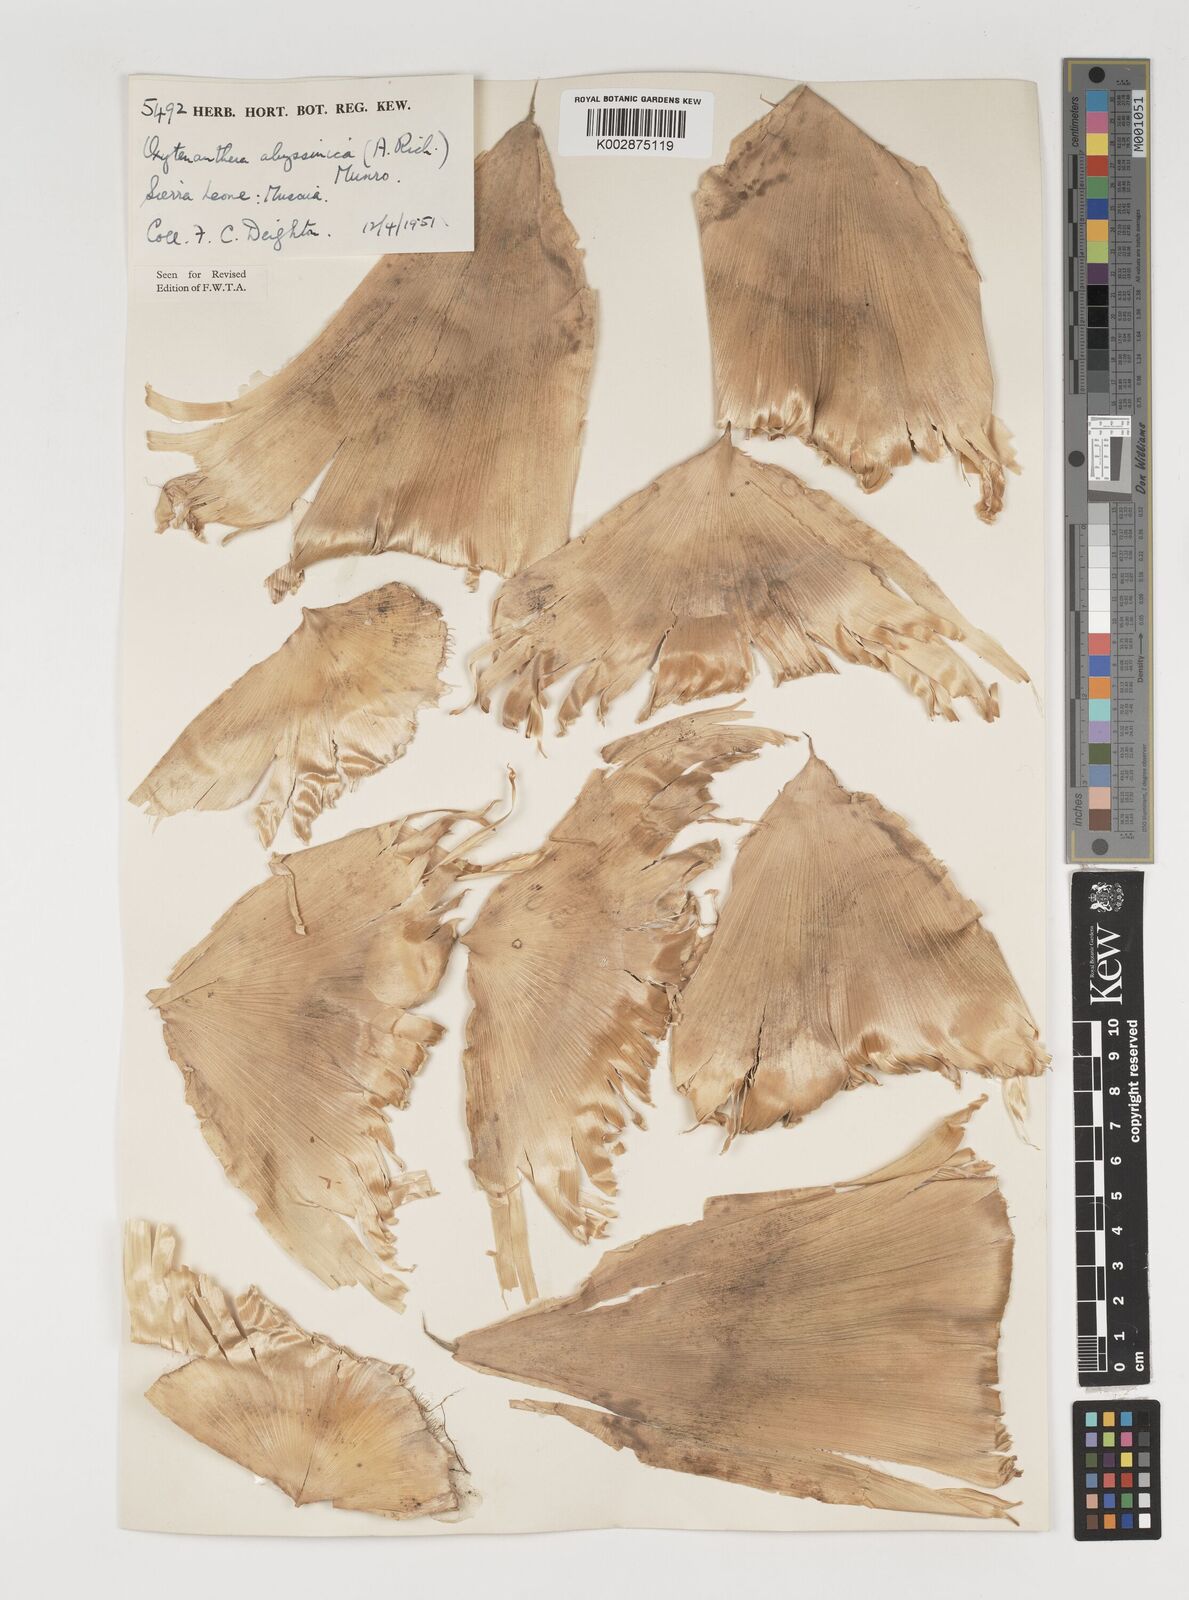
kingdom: Plantae
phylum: Tracheophyta
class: Liliopsida
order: Poales
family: Poaceae
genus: Oxytenanthera
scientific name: Oxytenanthera abyssinica
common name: Wine bamboo
